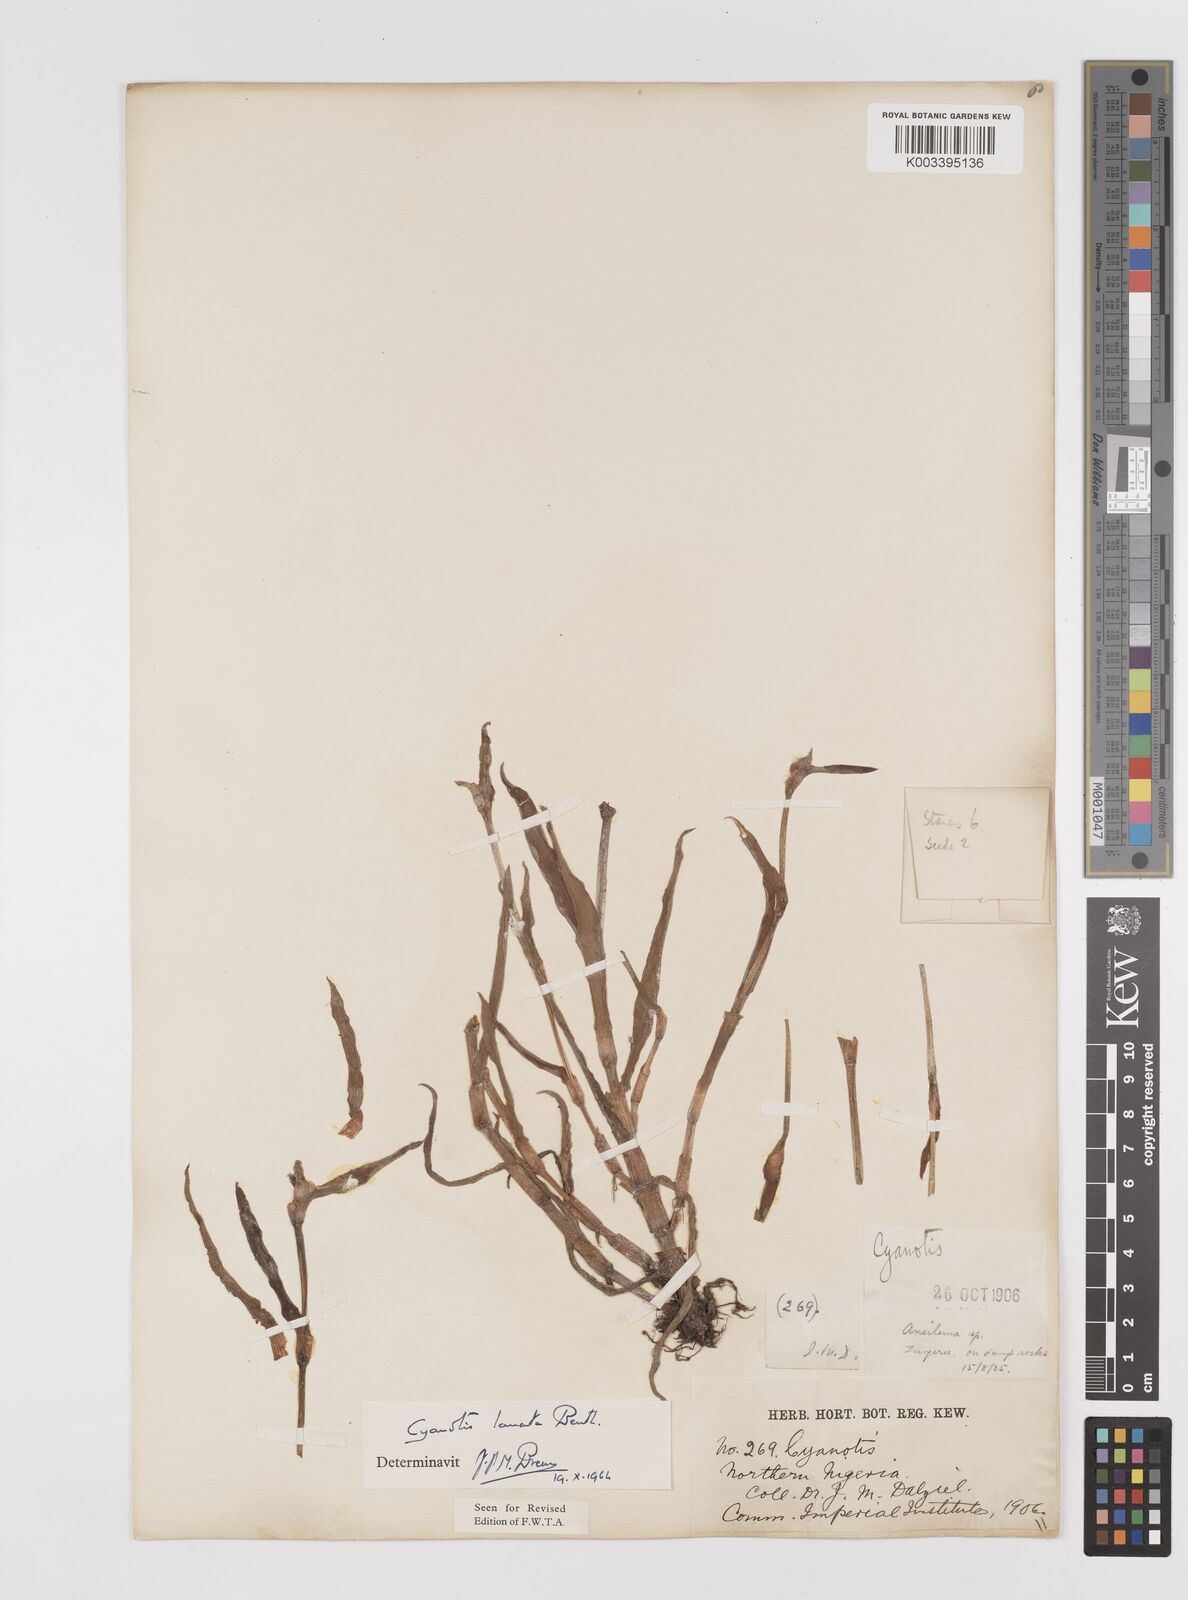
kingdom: Plantae
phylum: Tracheophyta
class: Liliopsida
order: Commelinales
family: Commelinaceae
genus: Cyanotis
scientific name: Cyanotis lanata
